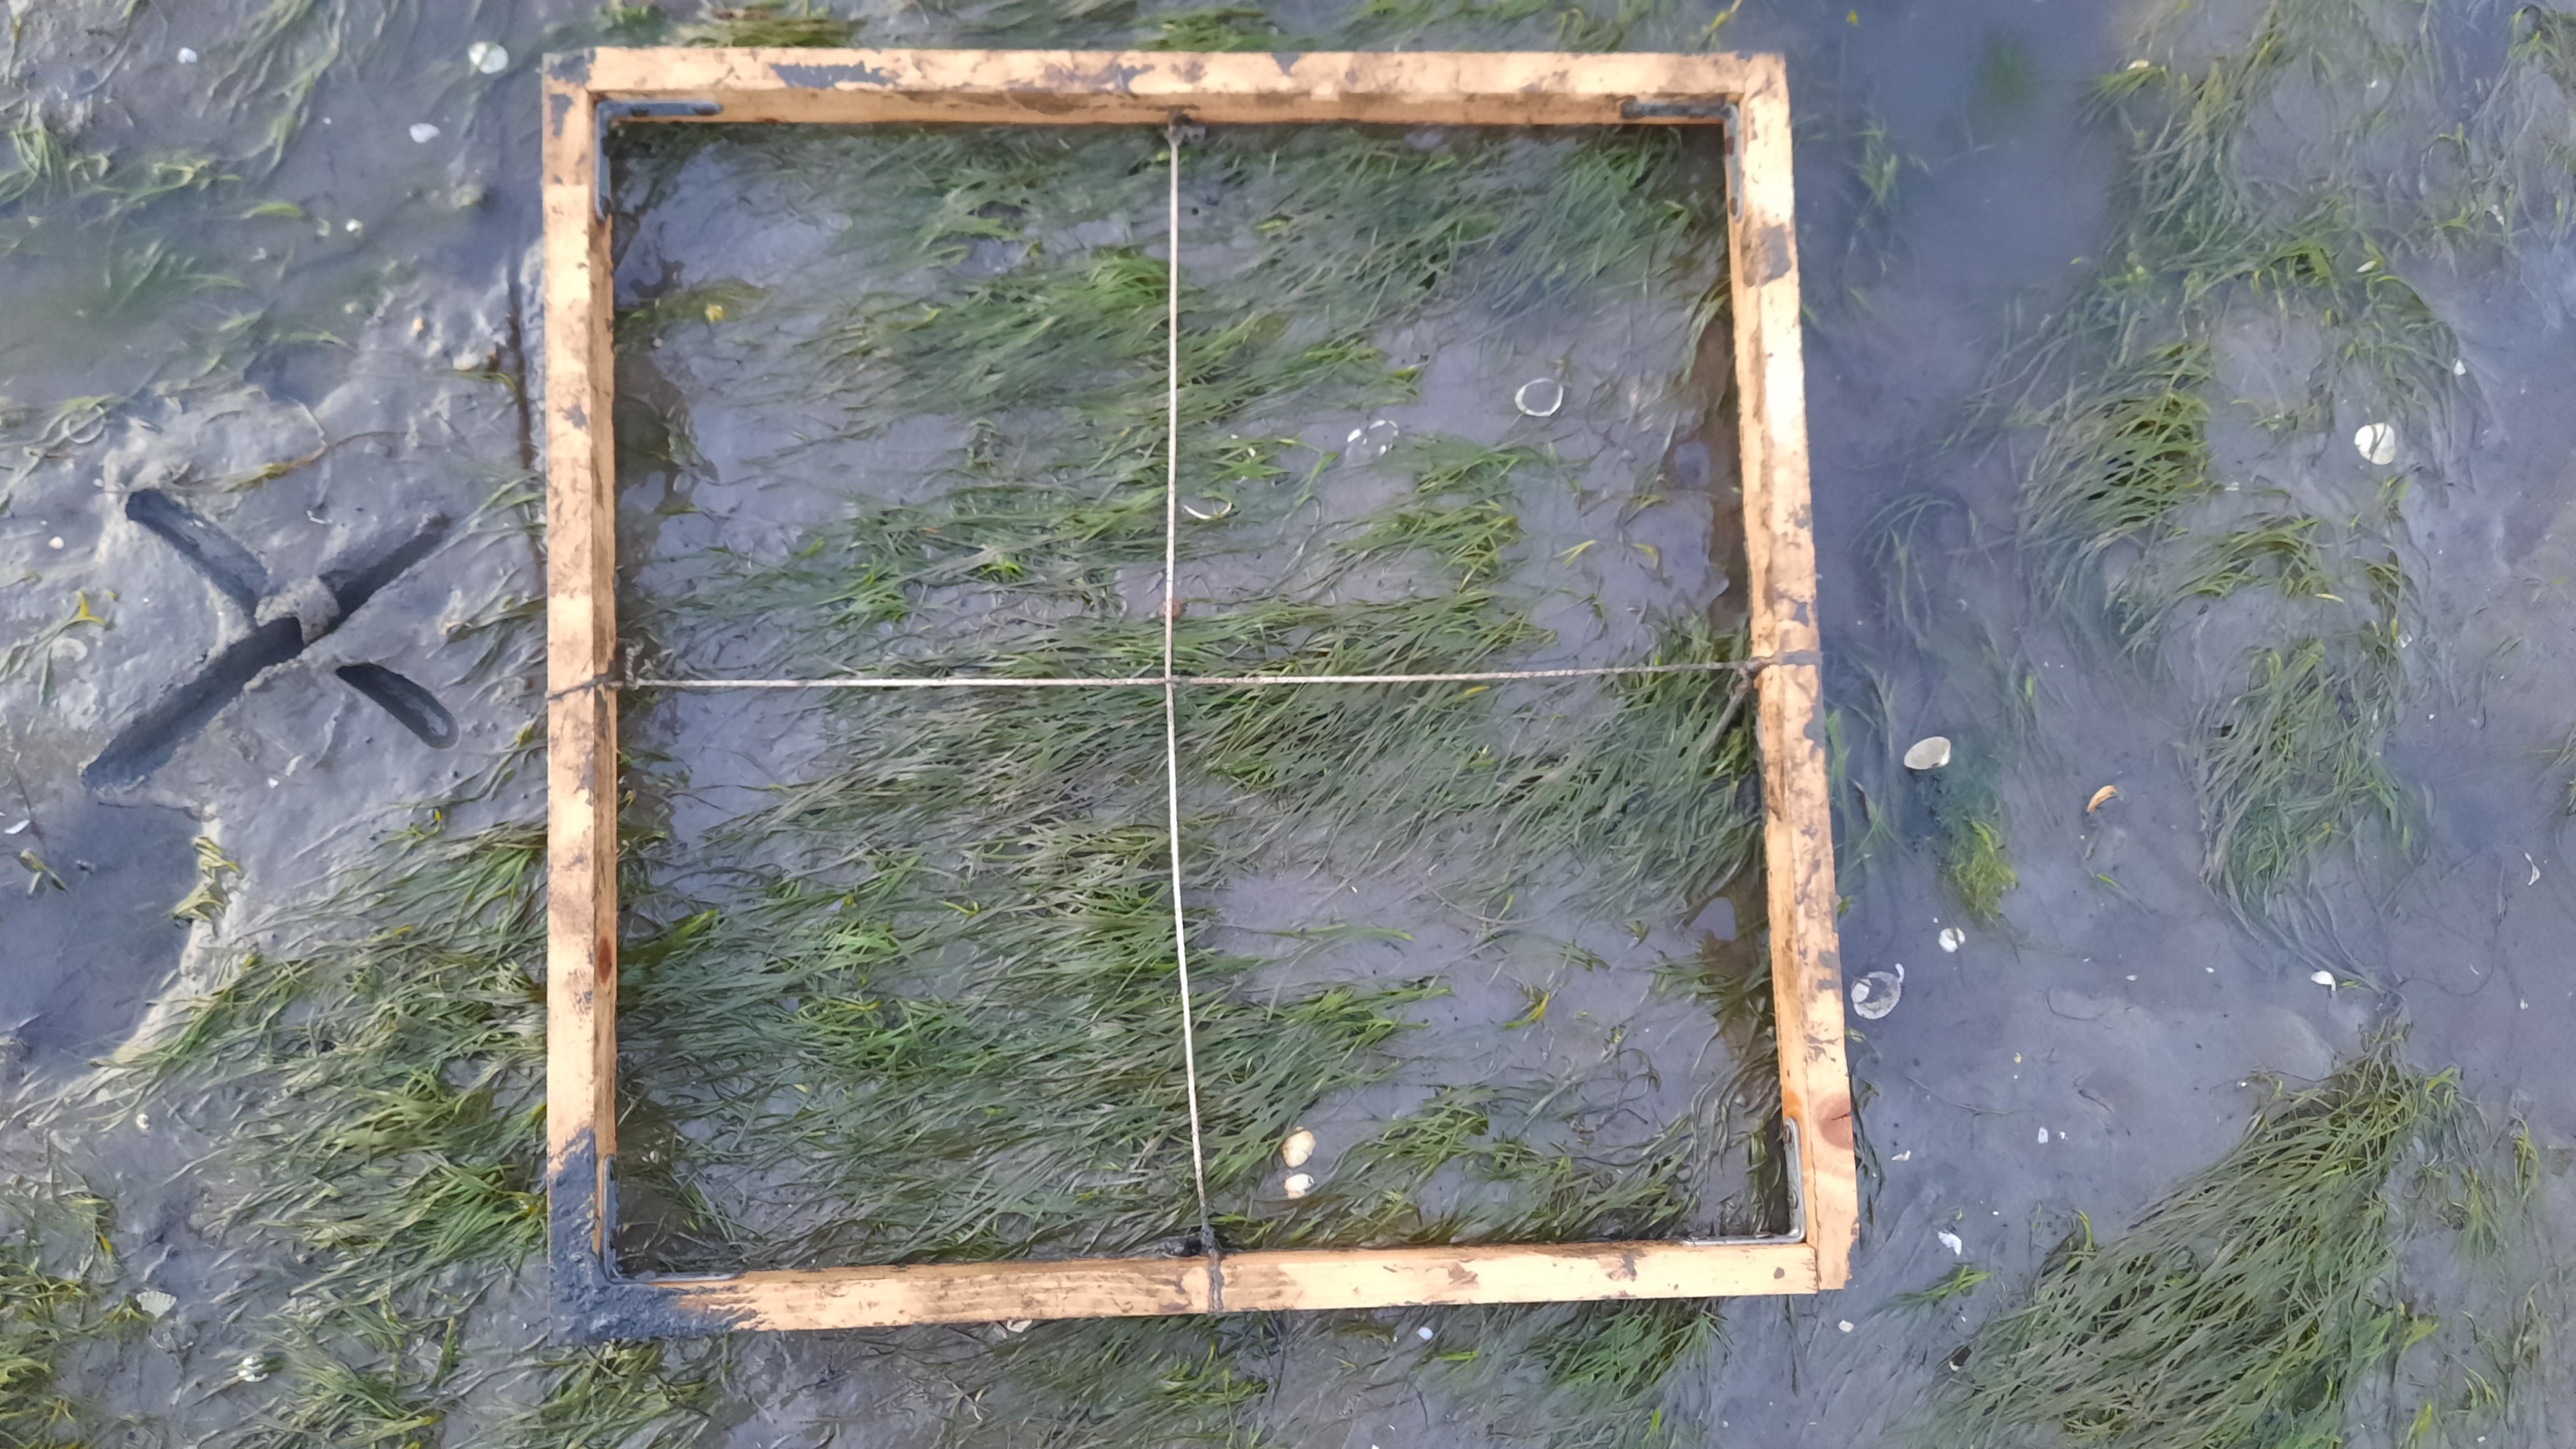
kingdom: Plantae
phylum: Tracheophyta
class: Liliopsida
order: Alismatales
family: Zosteraceae
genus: Zostera
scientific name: Zostera noltii
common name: Dwarf eelgrass
